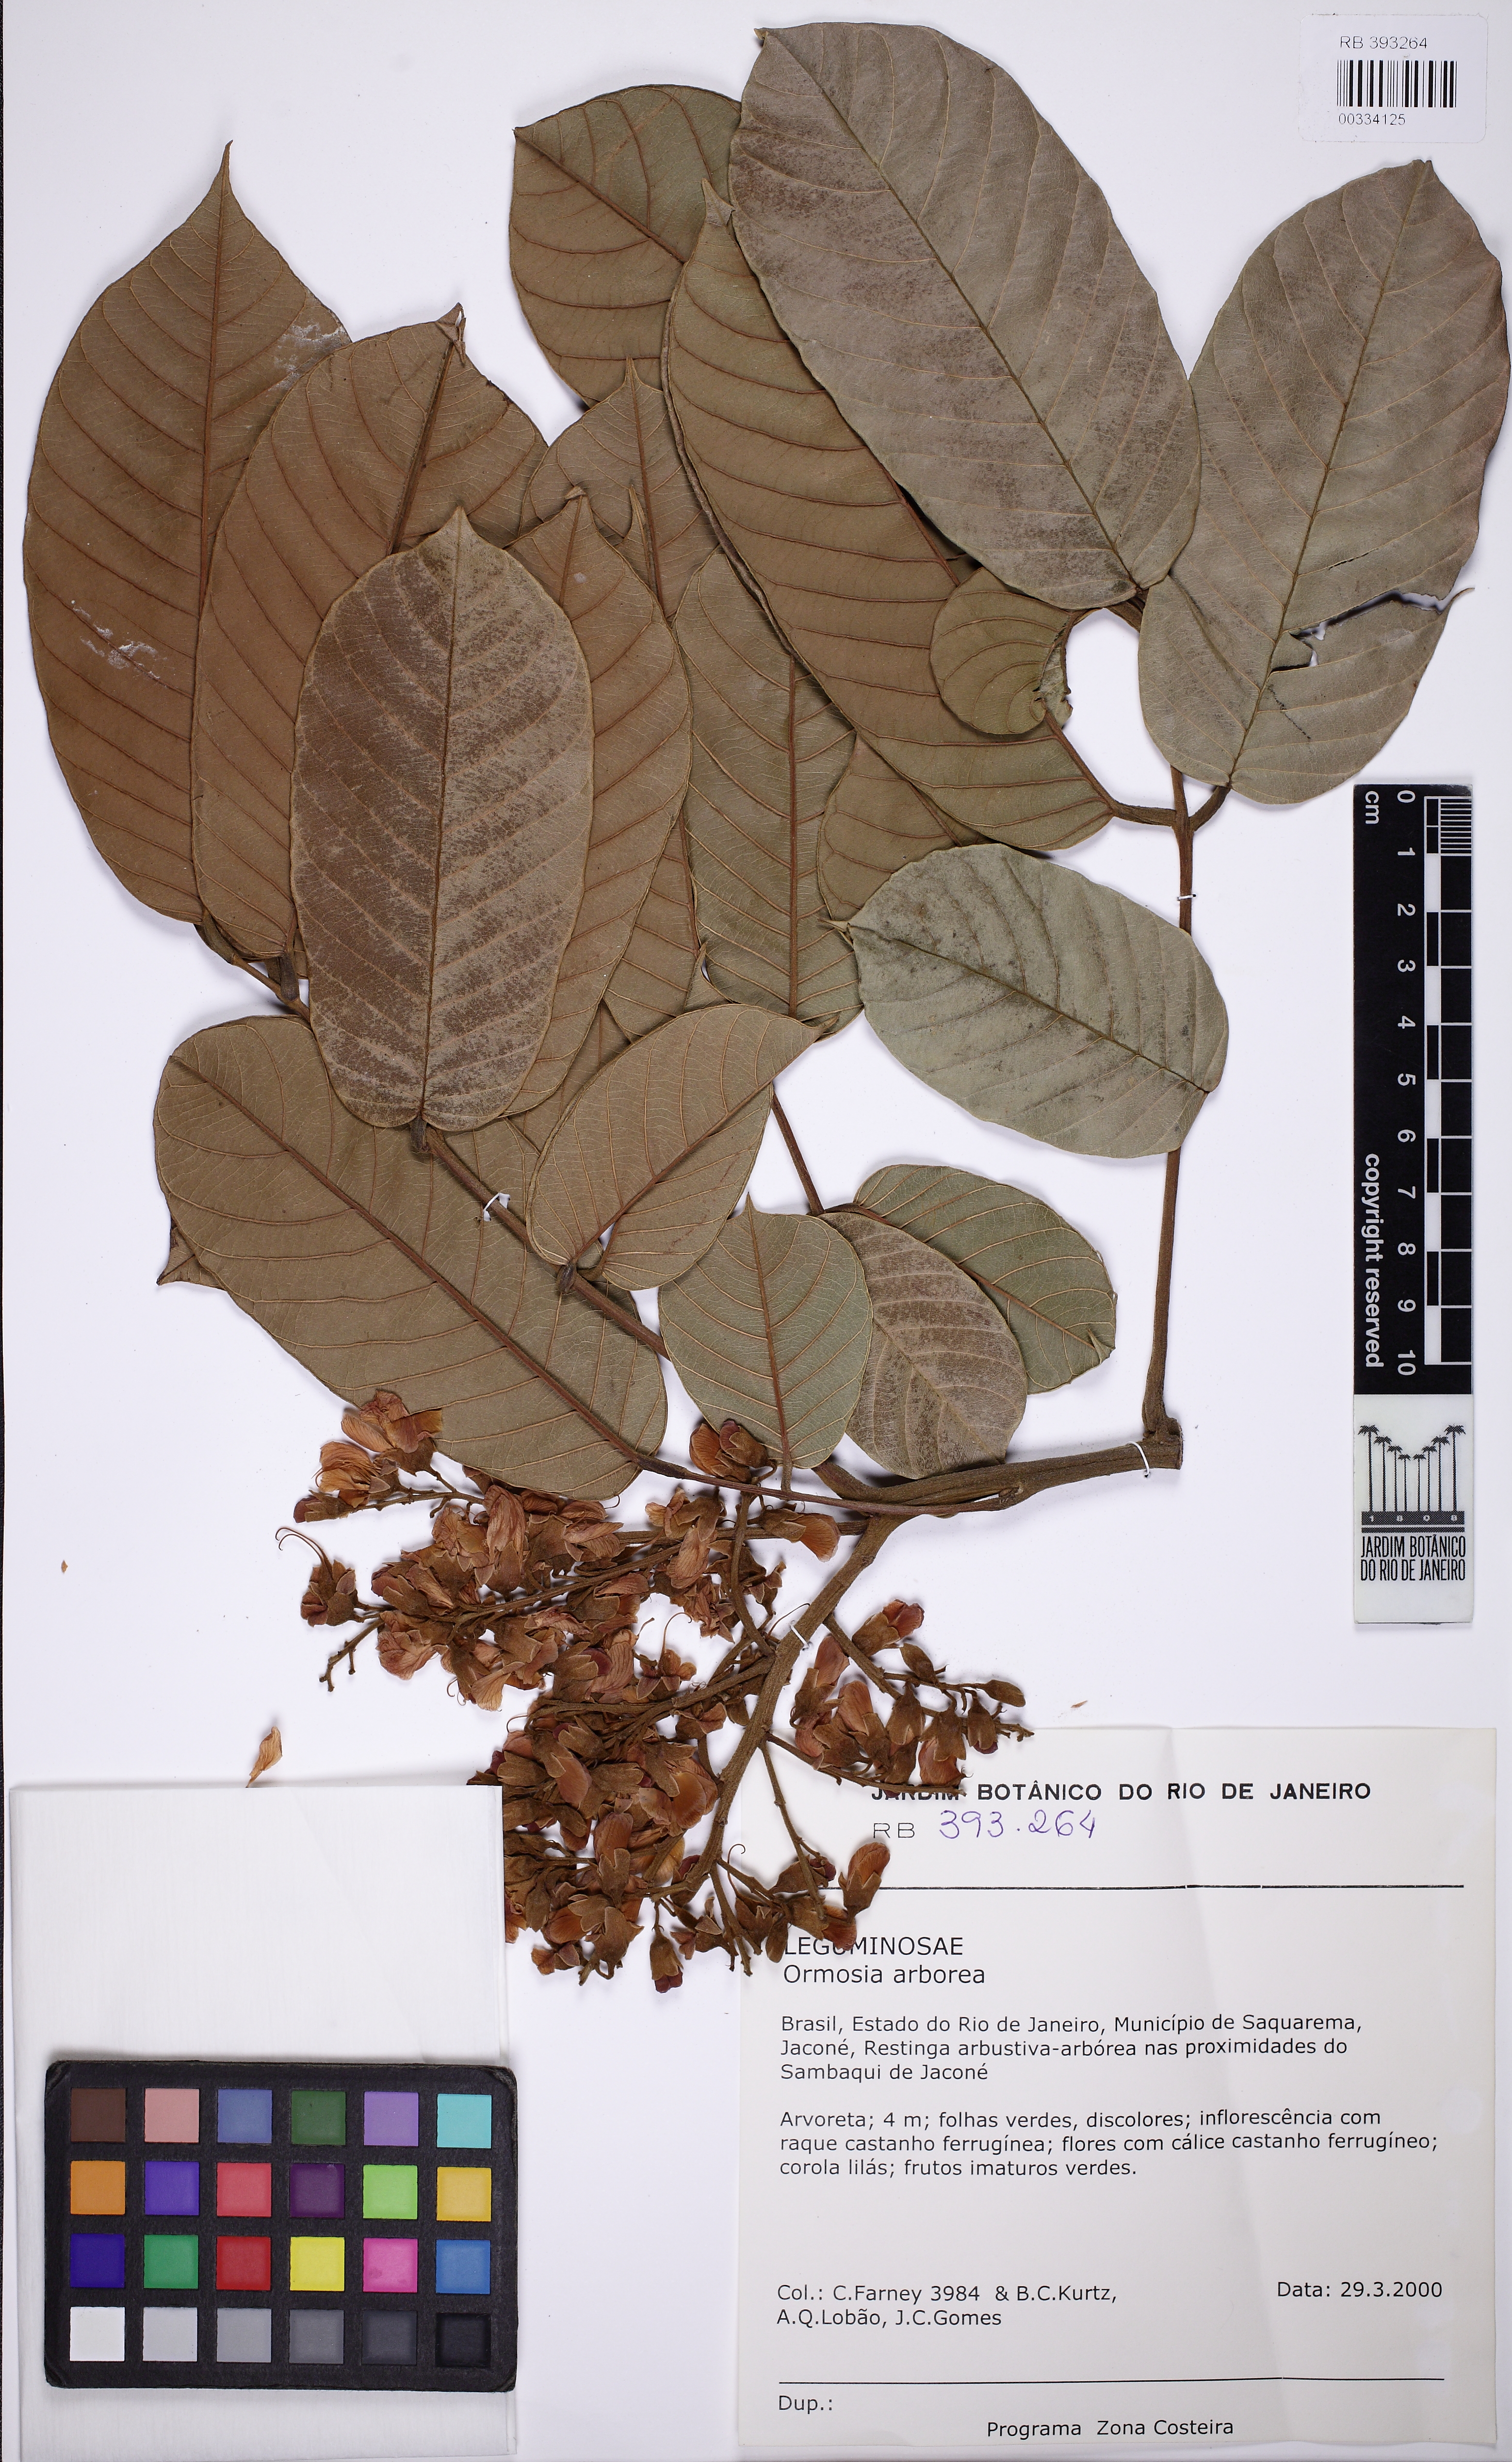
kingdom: Plantae
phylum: Tracheophyta
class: Magnoliopsida
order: Fabales
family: Fabaceae
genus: Ormosia
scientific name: Ormosia arborea
